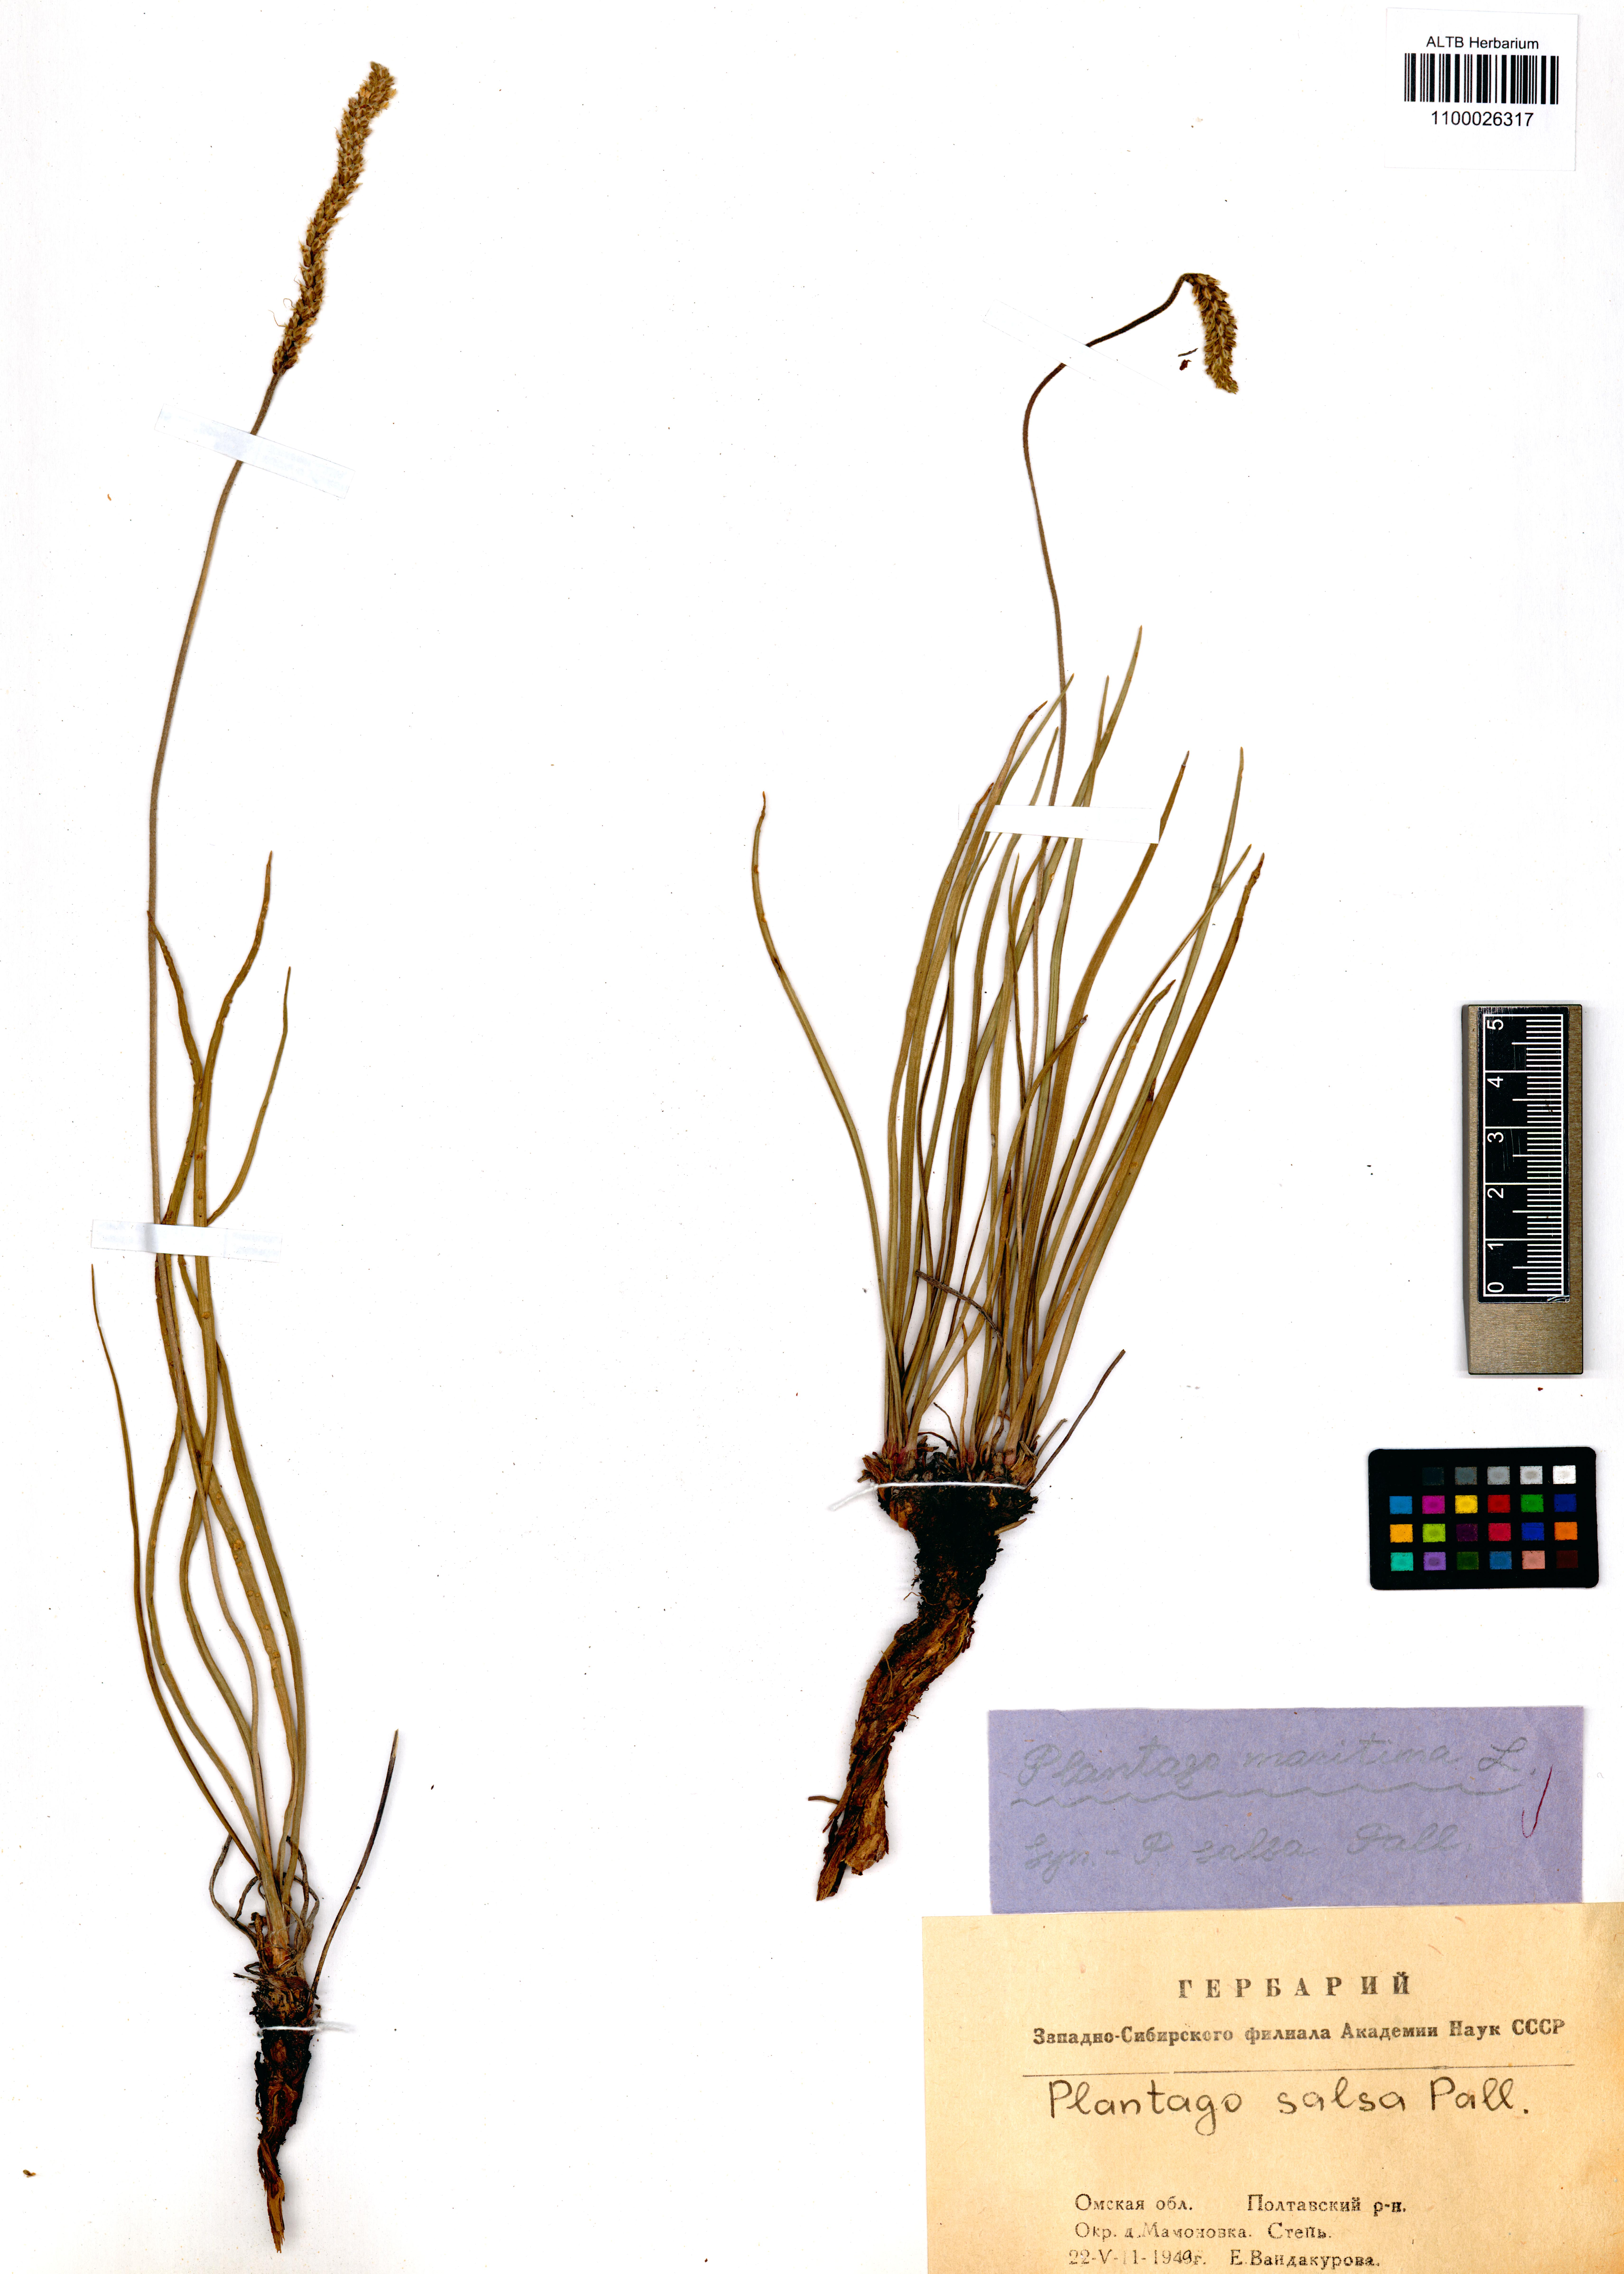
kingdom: Plantae
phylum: Tracheophyta
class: Liliopsida
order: Poales
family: Poaceae
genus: Stipa
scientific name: Stipa pennata
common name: European feather grass
